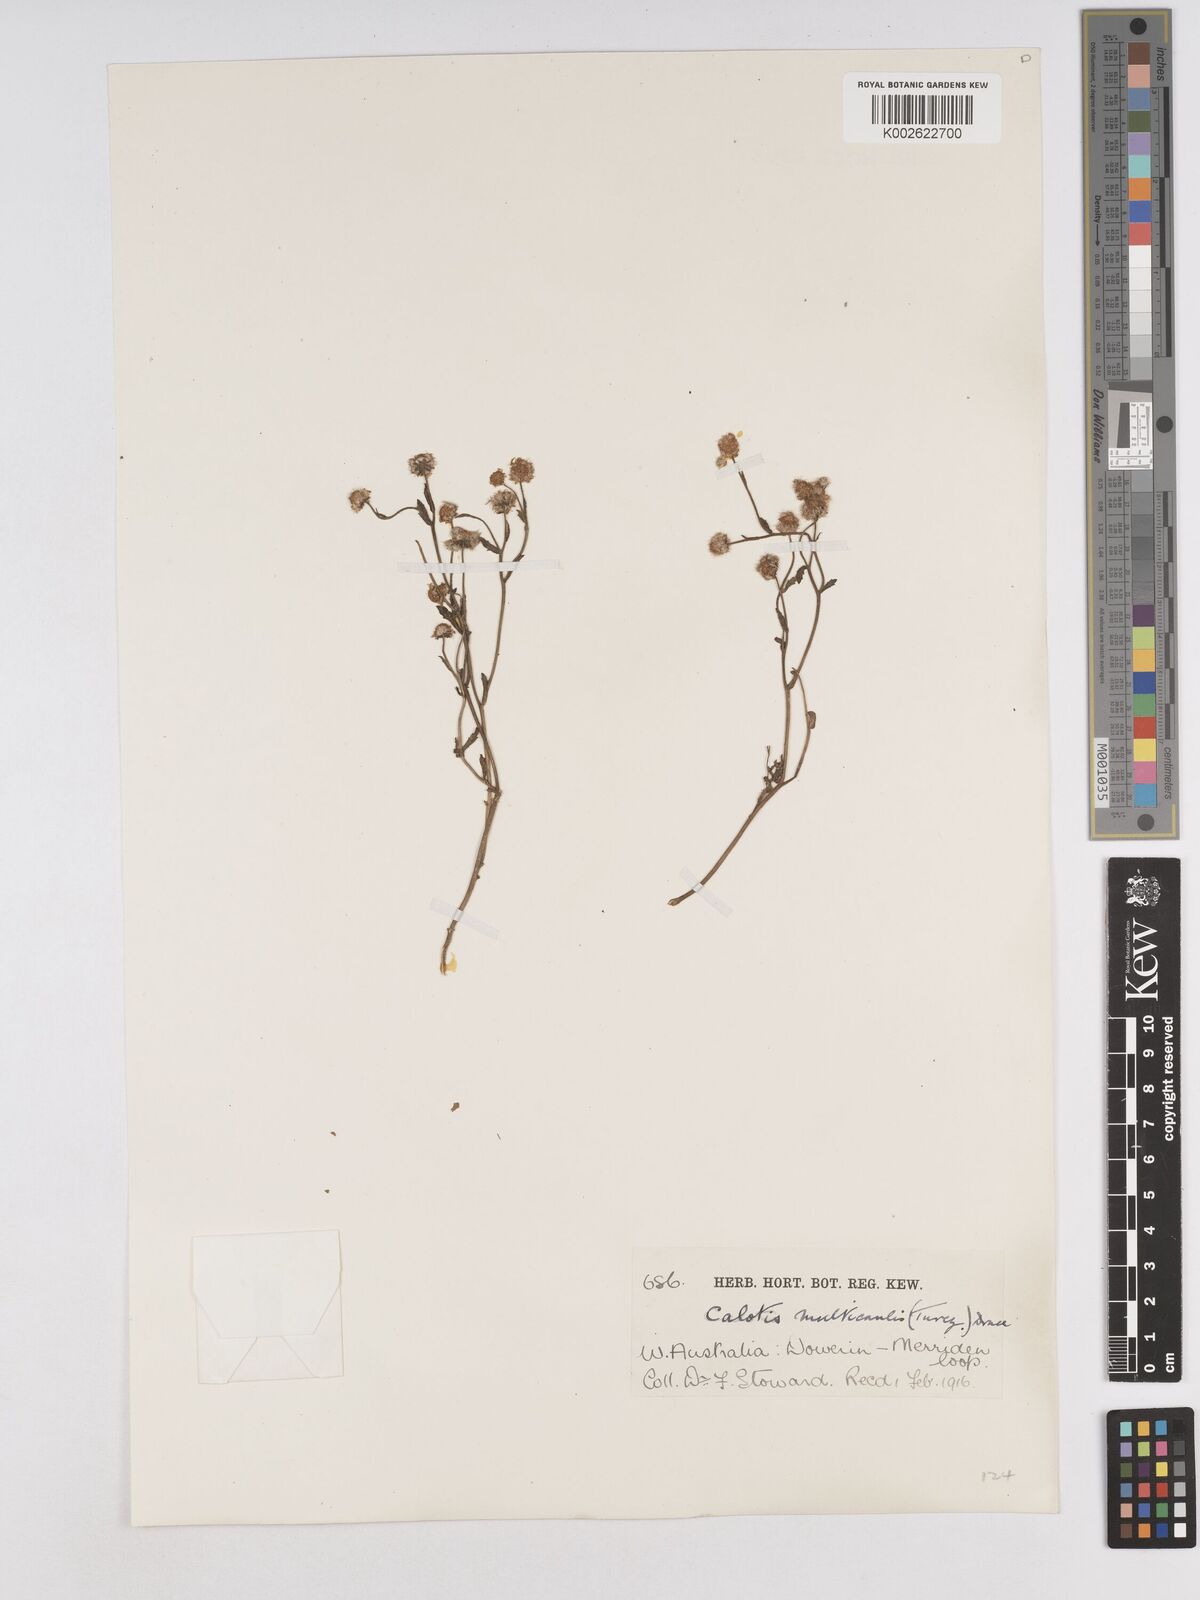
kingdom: Plantae
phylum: Tracheophyta
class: Magnoliopsida
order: Asterales
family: Asteraceae
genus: Calotis
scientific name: Calotis multicaulis
